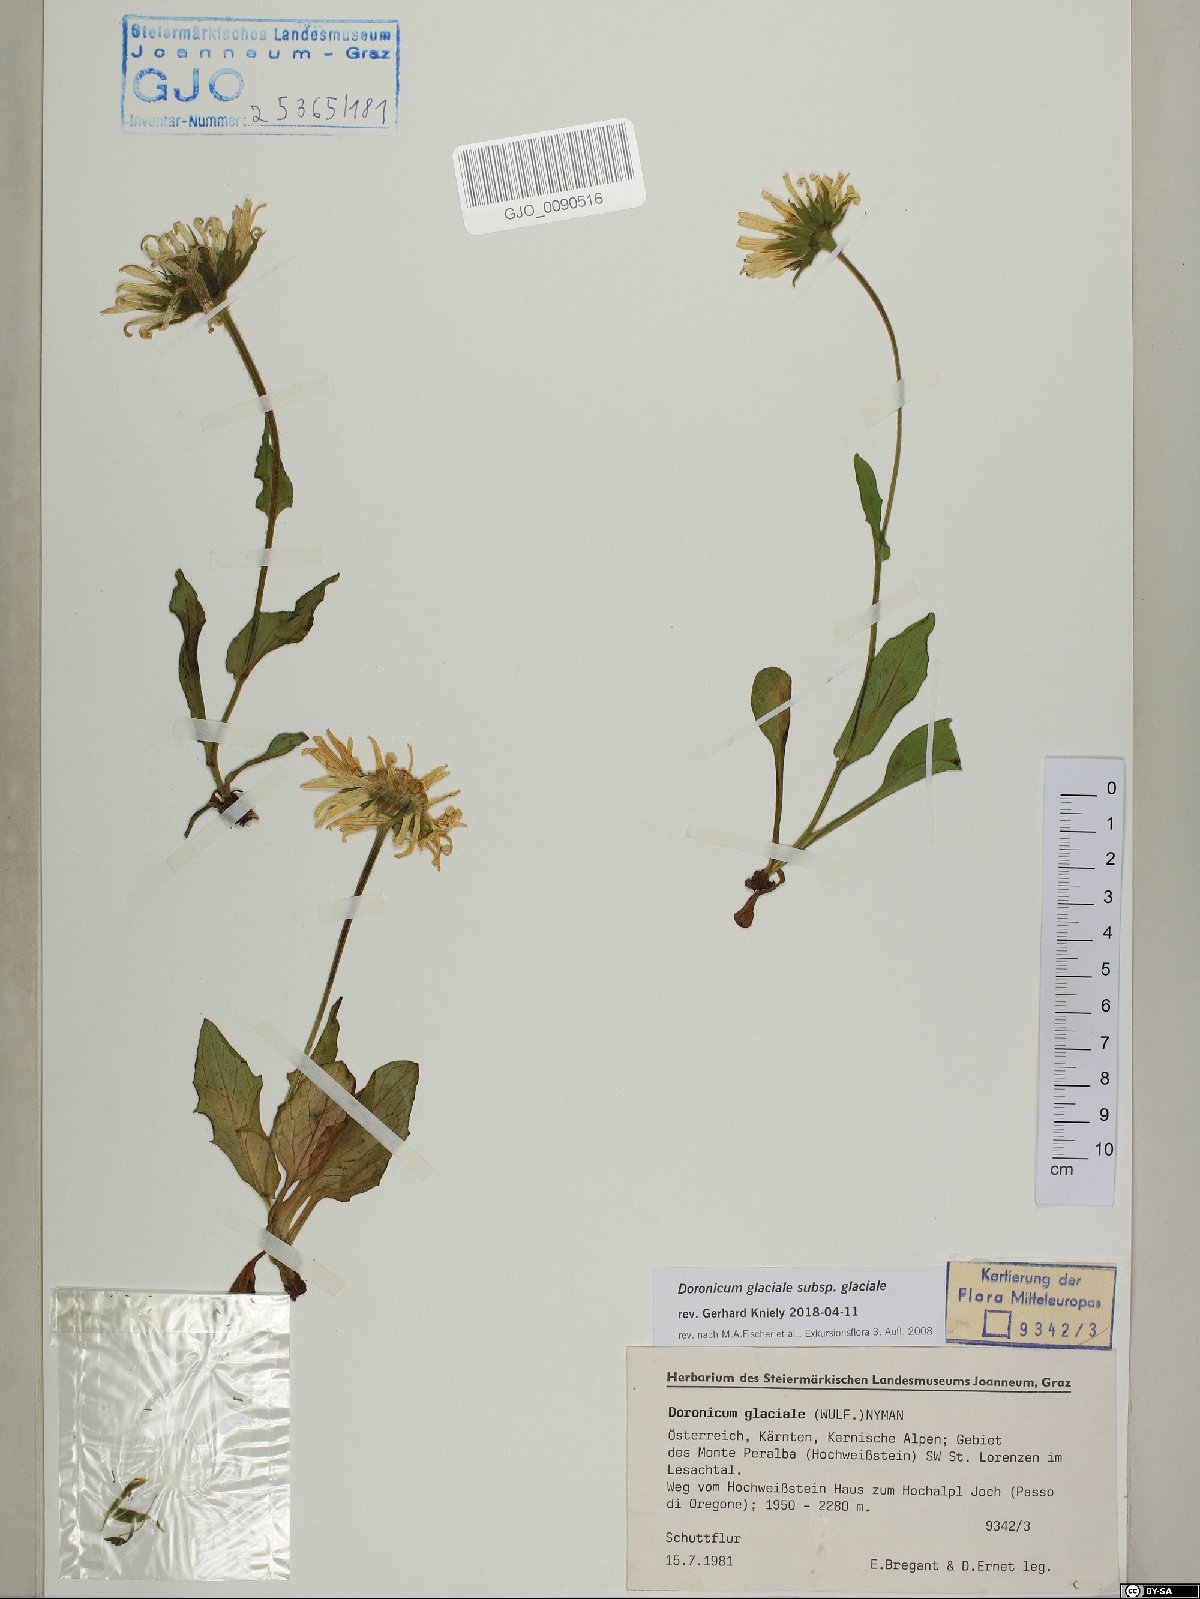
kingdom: Plantae
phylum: Tracheophyta
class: Magnoliopsida
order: Asterales
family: Asteraceae
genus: Doronicum
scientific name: Doronicum glaciale
